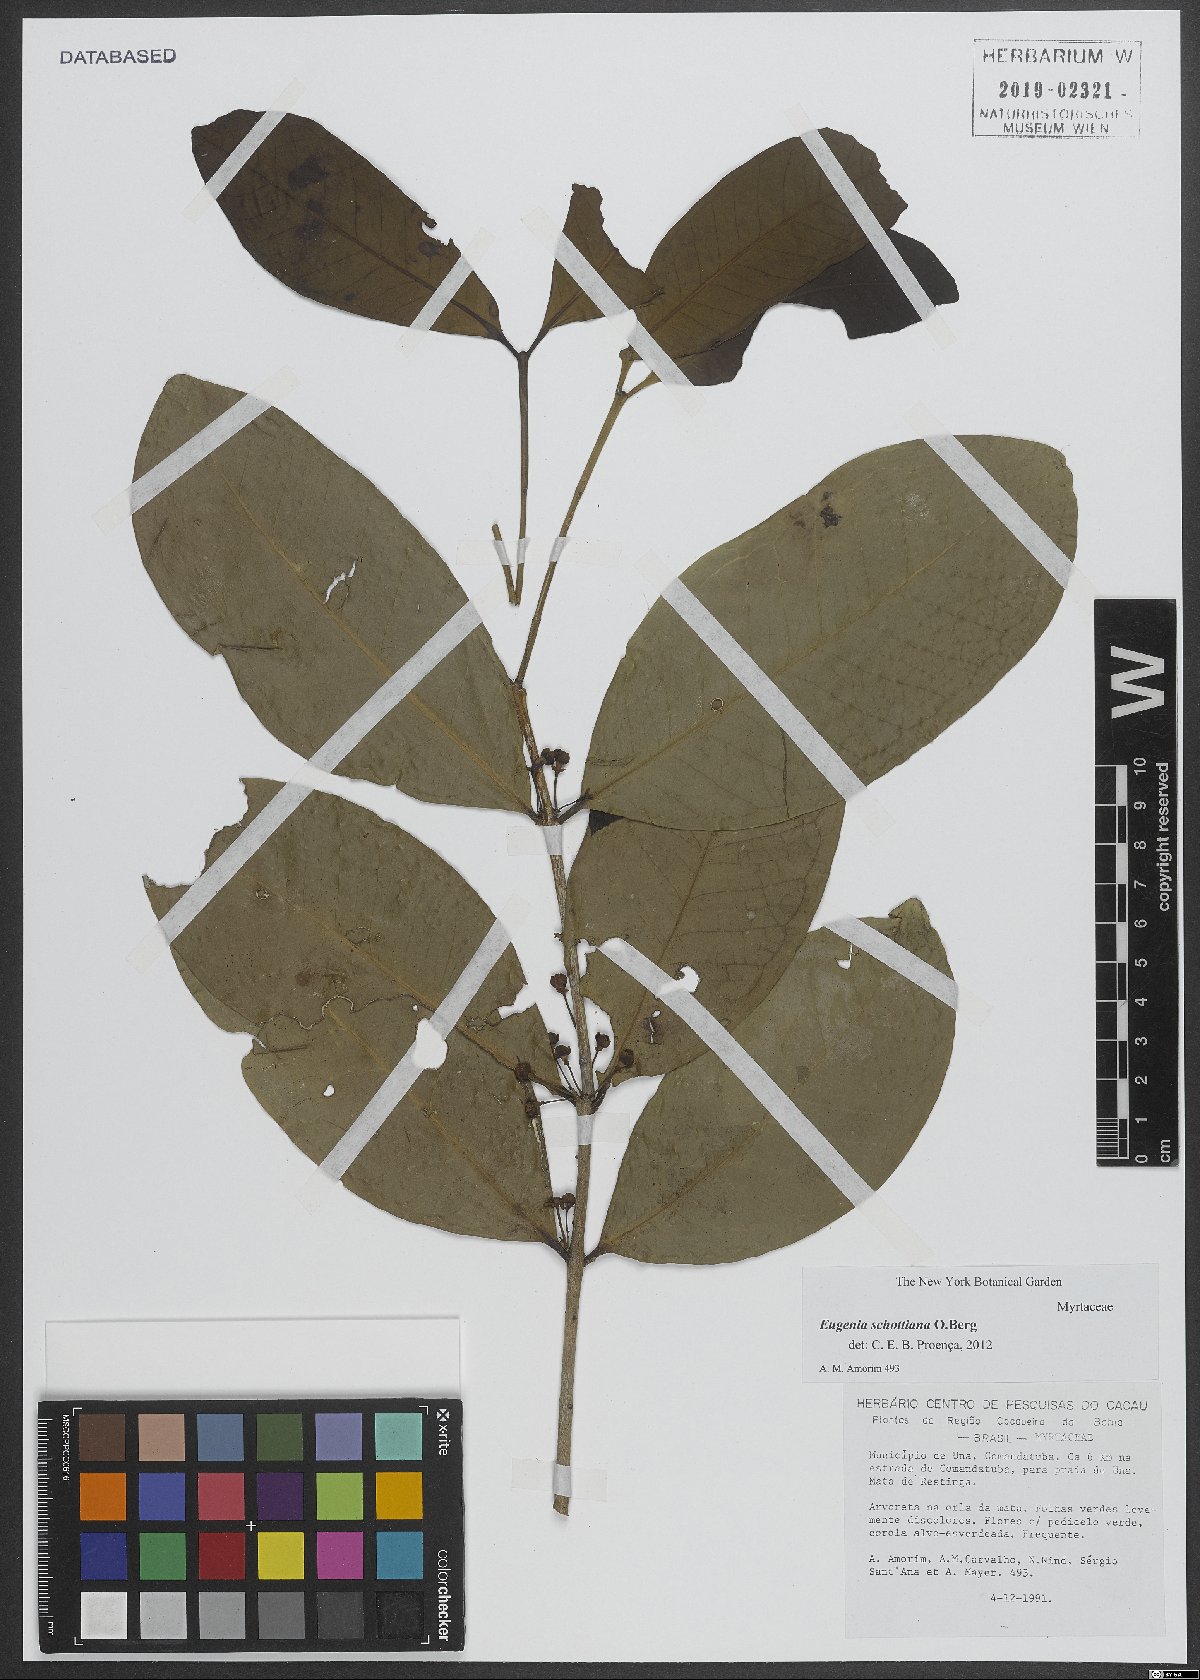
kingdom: Plantae
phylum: Tracheophyta
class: Magnoliopsida
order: Myrtales
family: Myrtaceae
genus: Eugenia
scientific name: Eugenia schottiana
